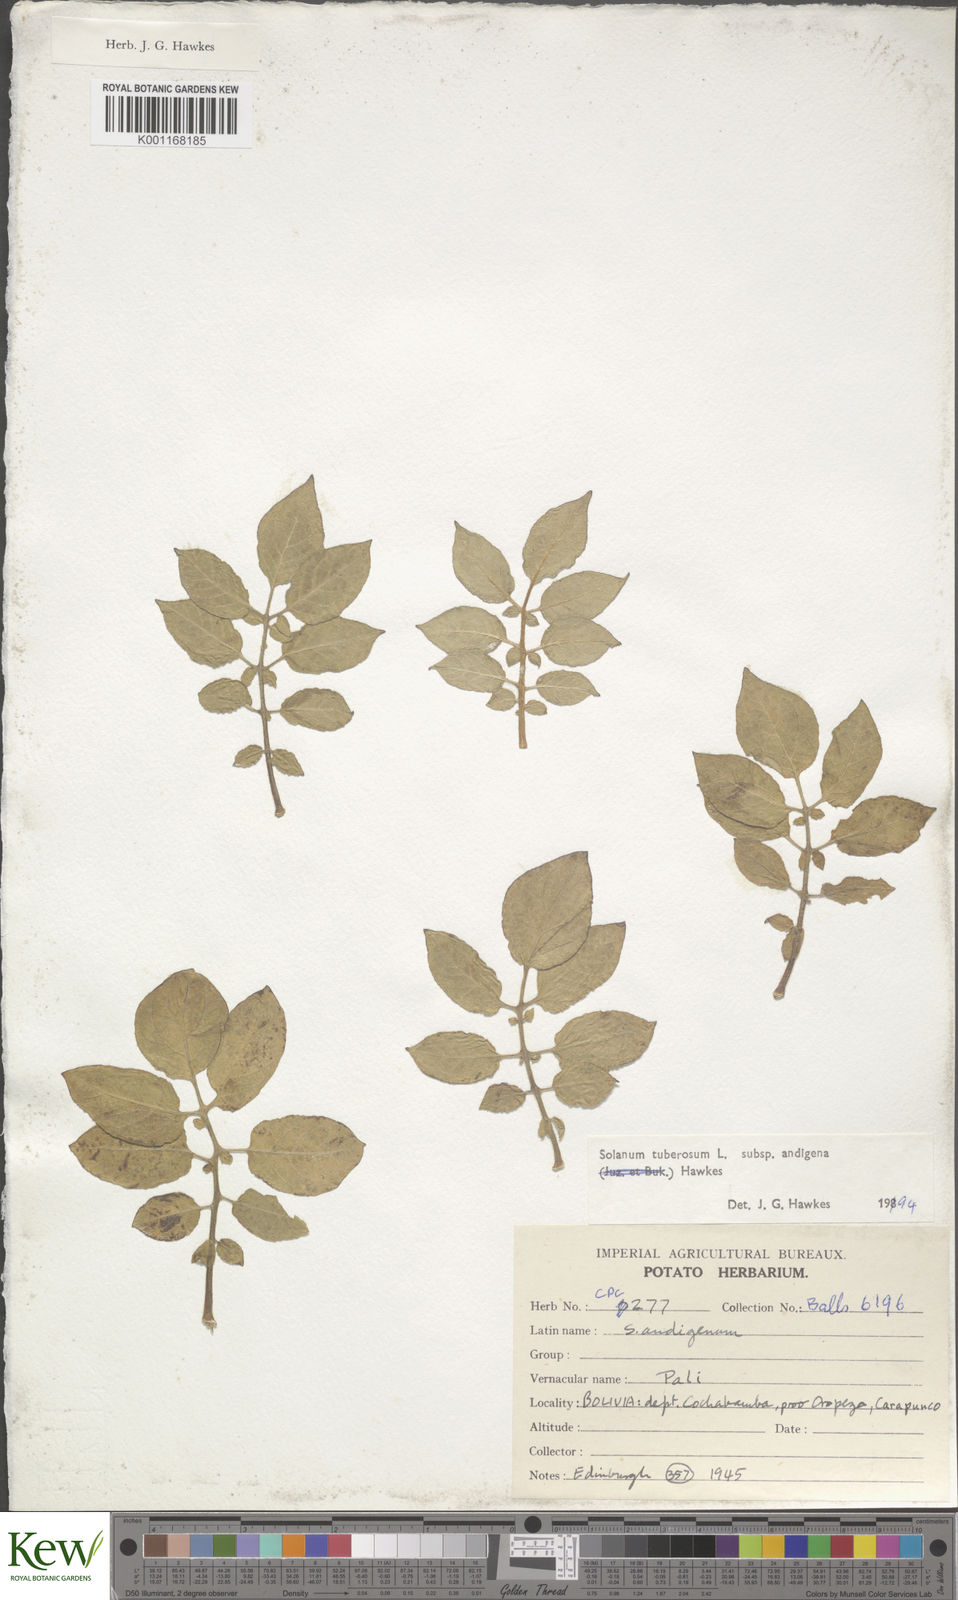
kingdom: Plantae
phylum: Tracheophyta
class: Magnoliopsida
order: Solanales
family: Solanaceae
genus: Solanum
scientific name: Solanum tuberosum
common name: Potato
